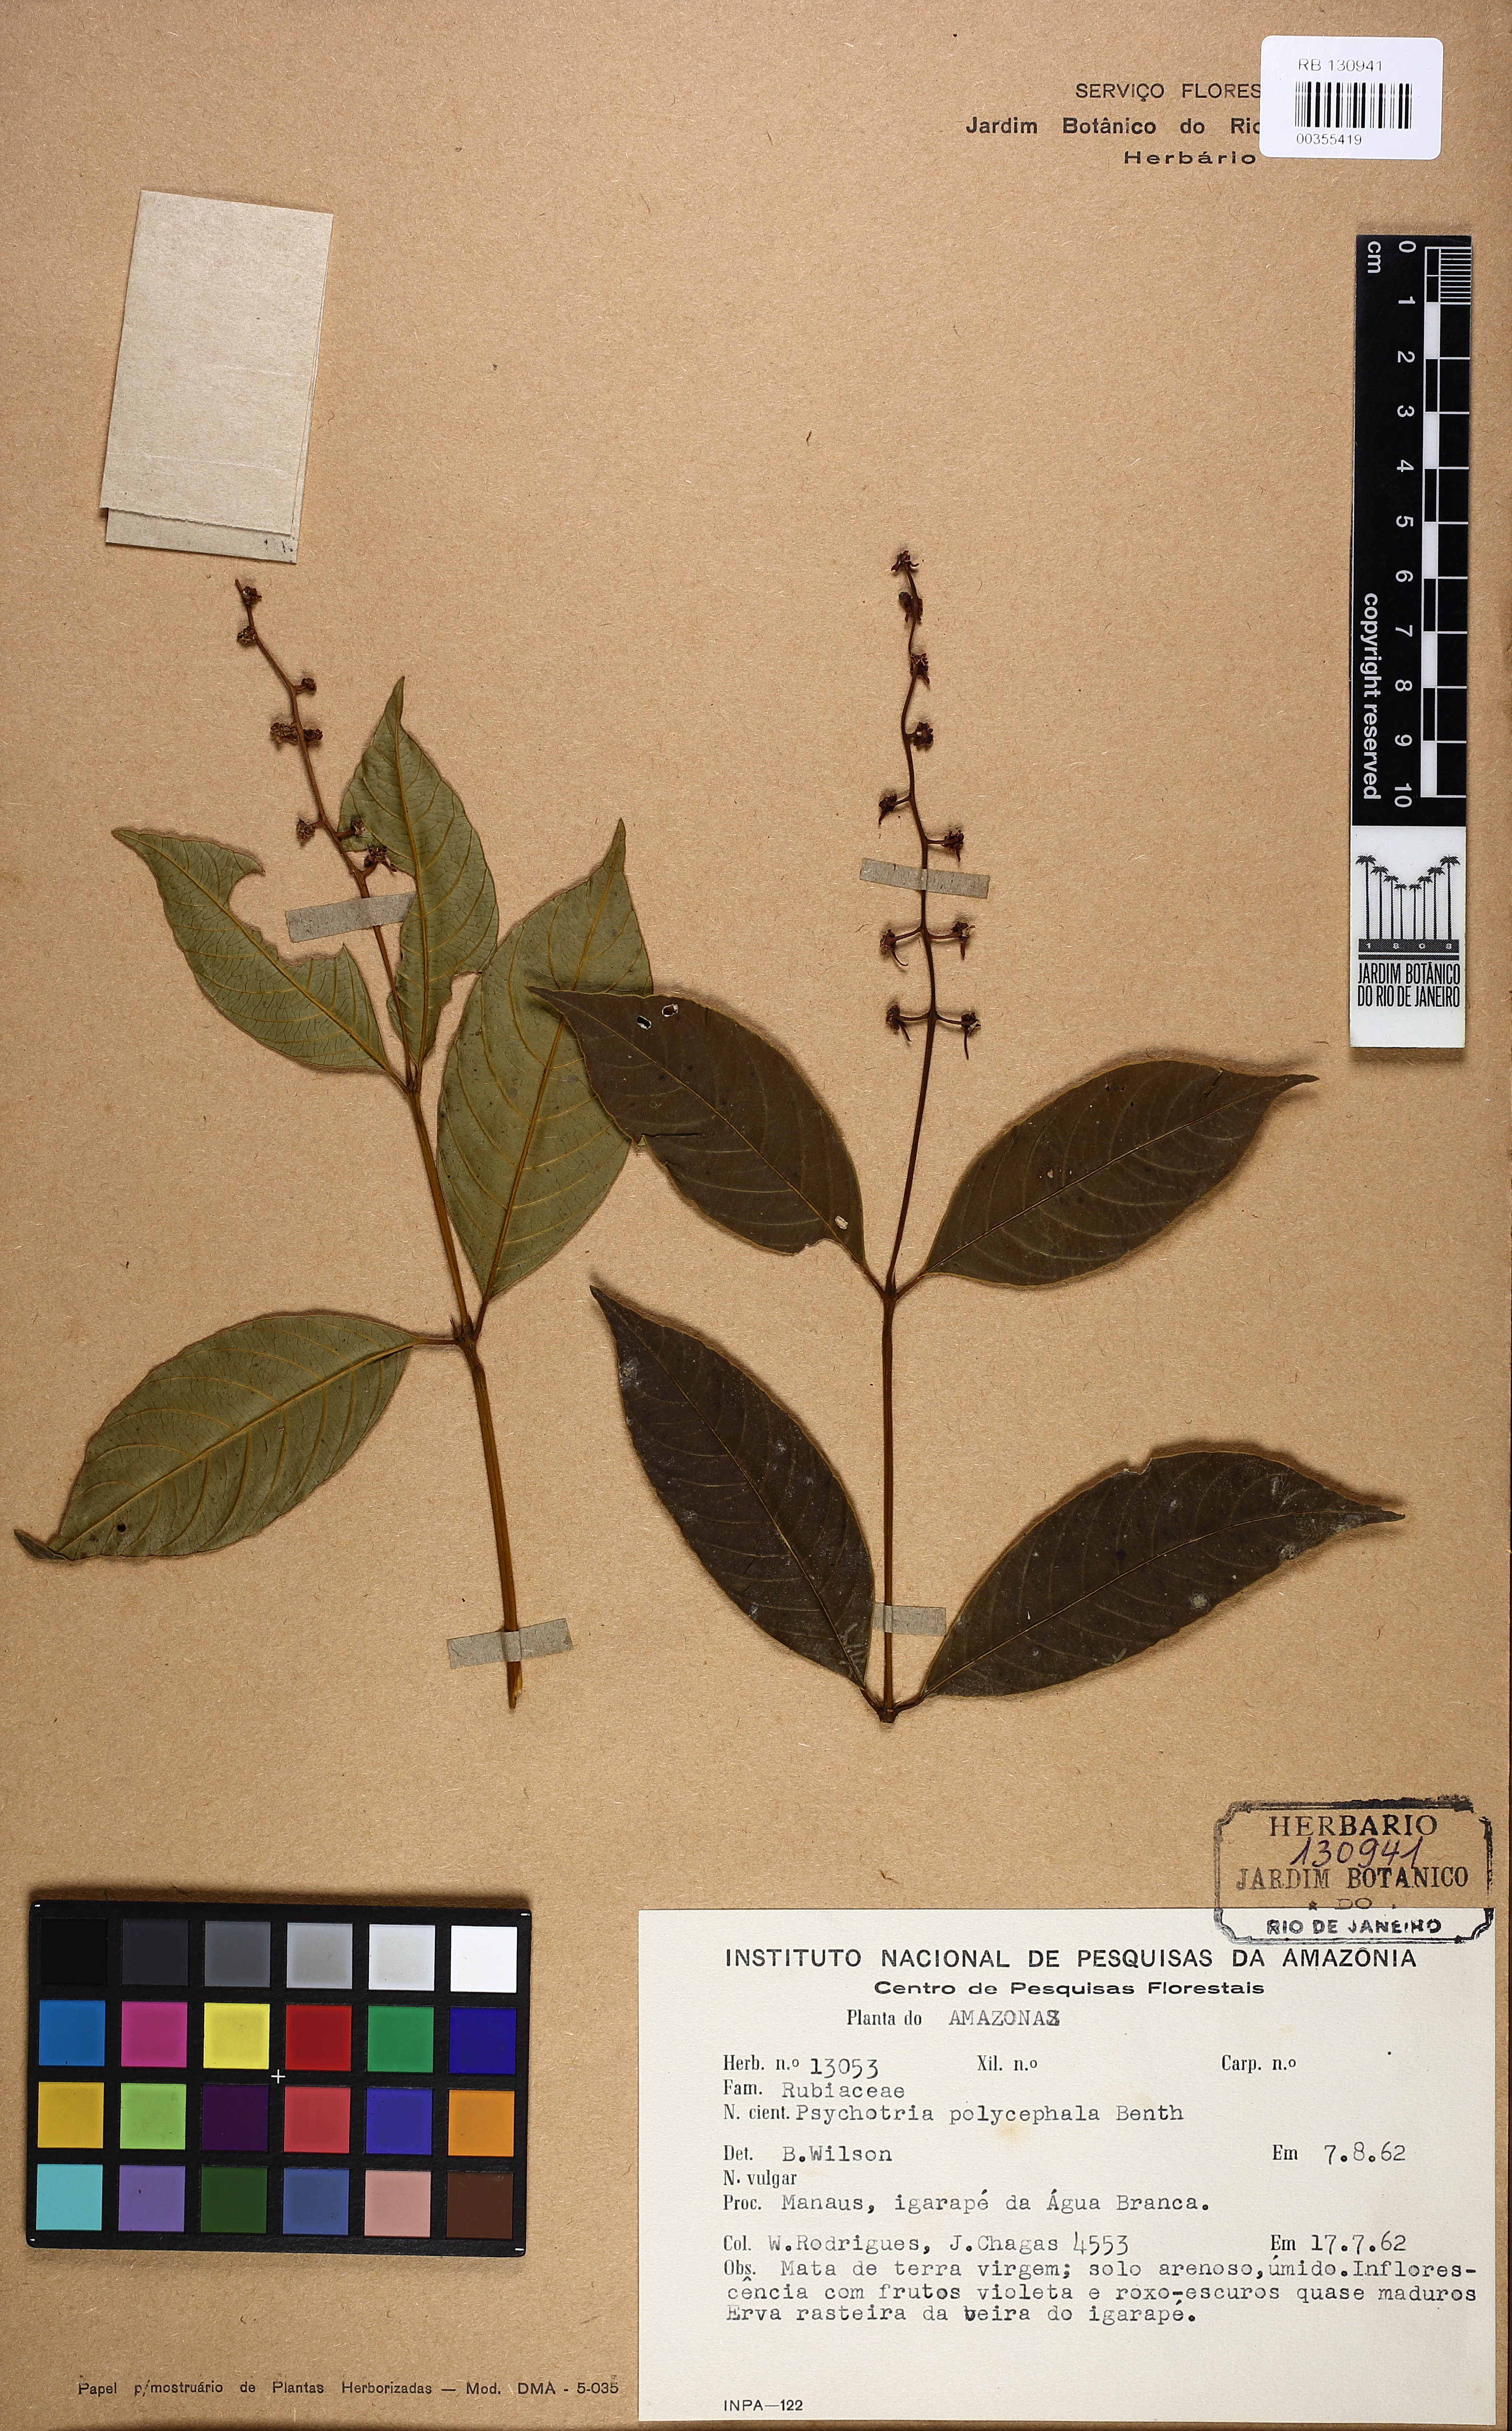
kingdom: Plantae
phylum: Tracheophyta
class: Magnoliopsida
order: Gentianales
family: Rubiaceae
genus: Palicourea
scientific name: Palicourea polycephala
